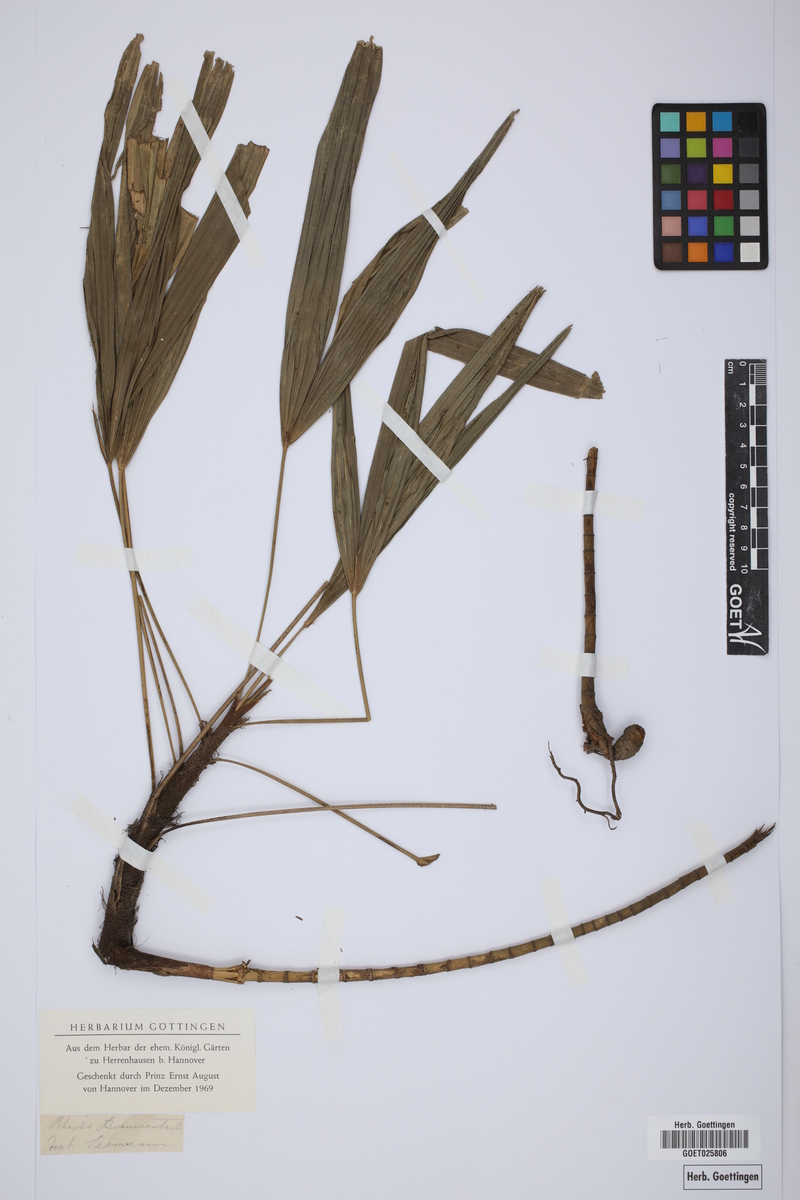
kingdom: Plantae
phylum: Tracheophyta
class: Liliopsida
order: Arecales
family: Arecaceae
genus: Rhapis
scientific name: Rhapis excelsa
